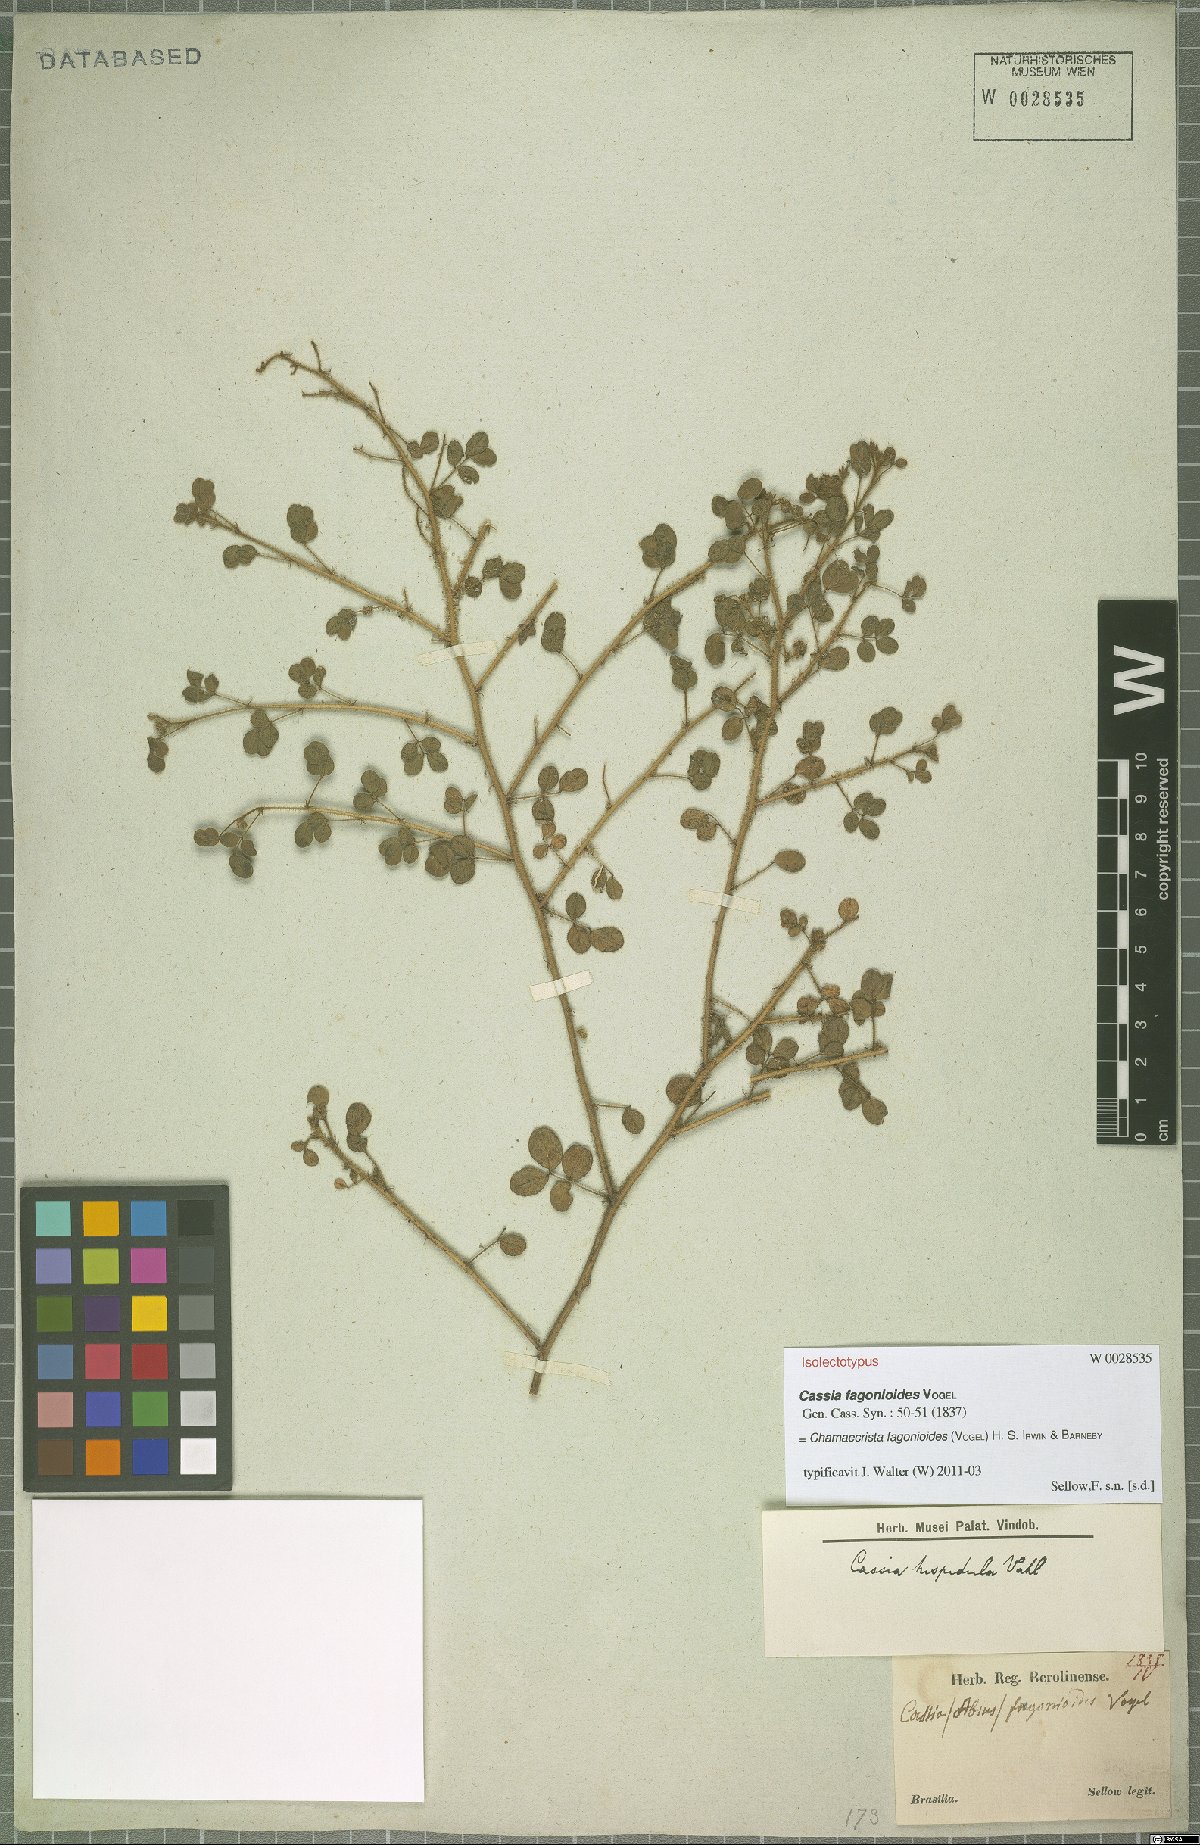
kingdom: Plantae
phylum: Tracheophyta
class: Magnoliopsida
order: Fabales
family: Fabaceae
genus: Chamaecrista
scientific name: Chamaecrista fagonioides
